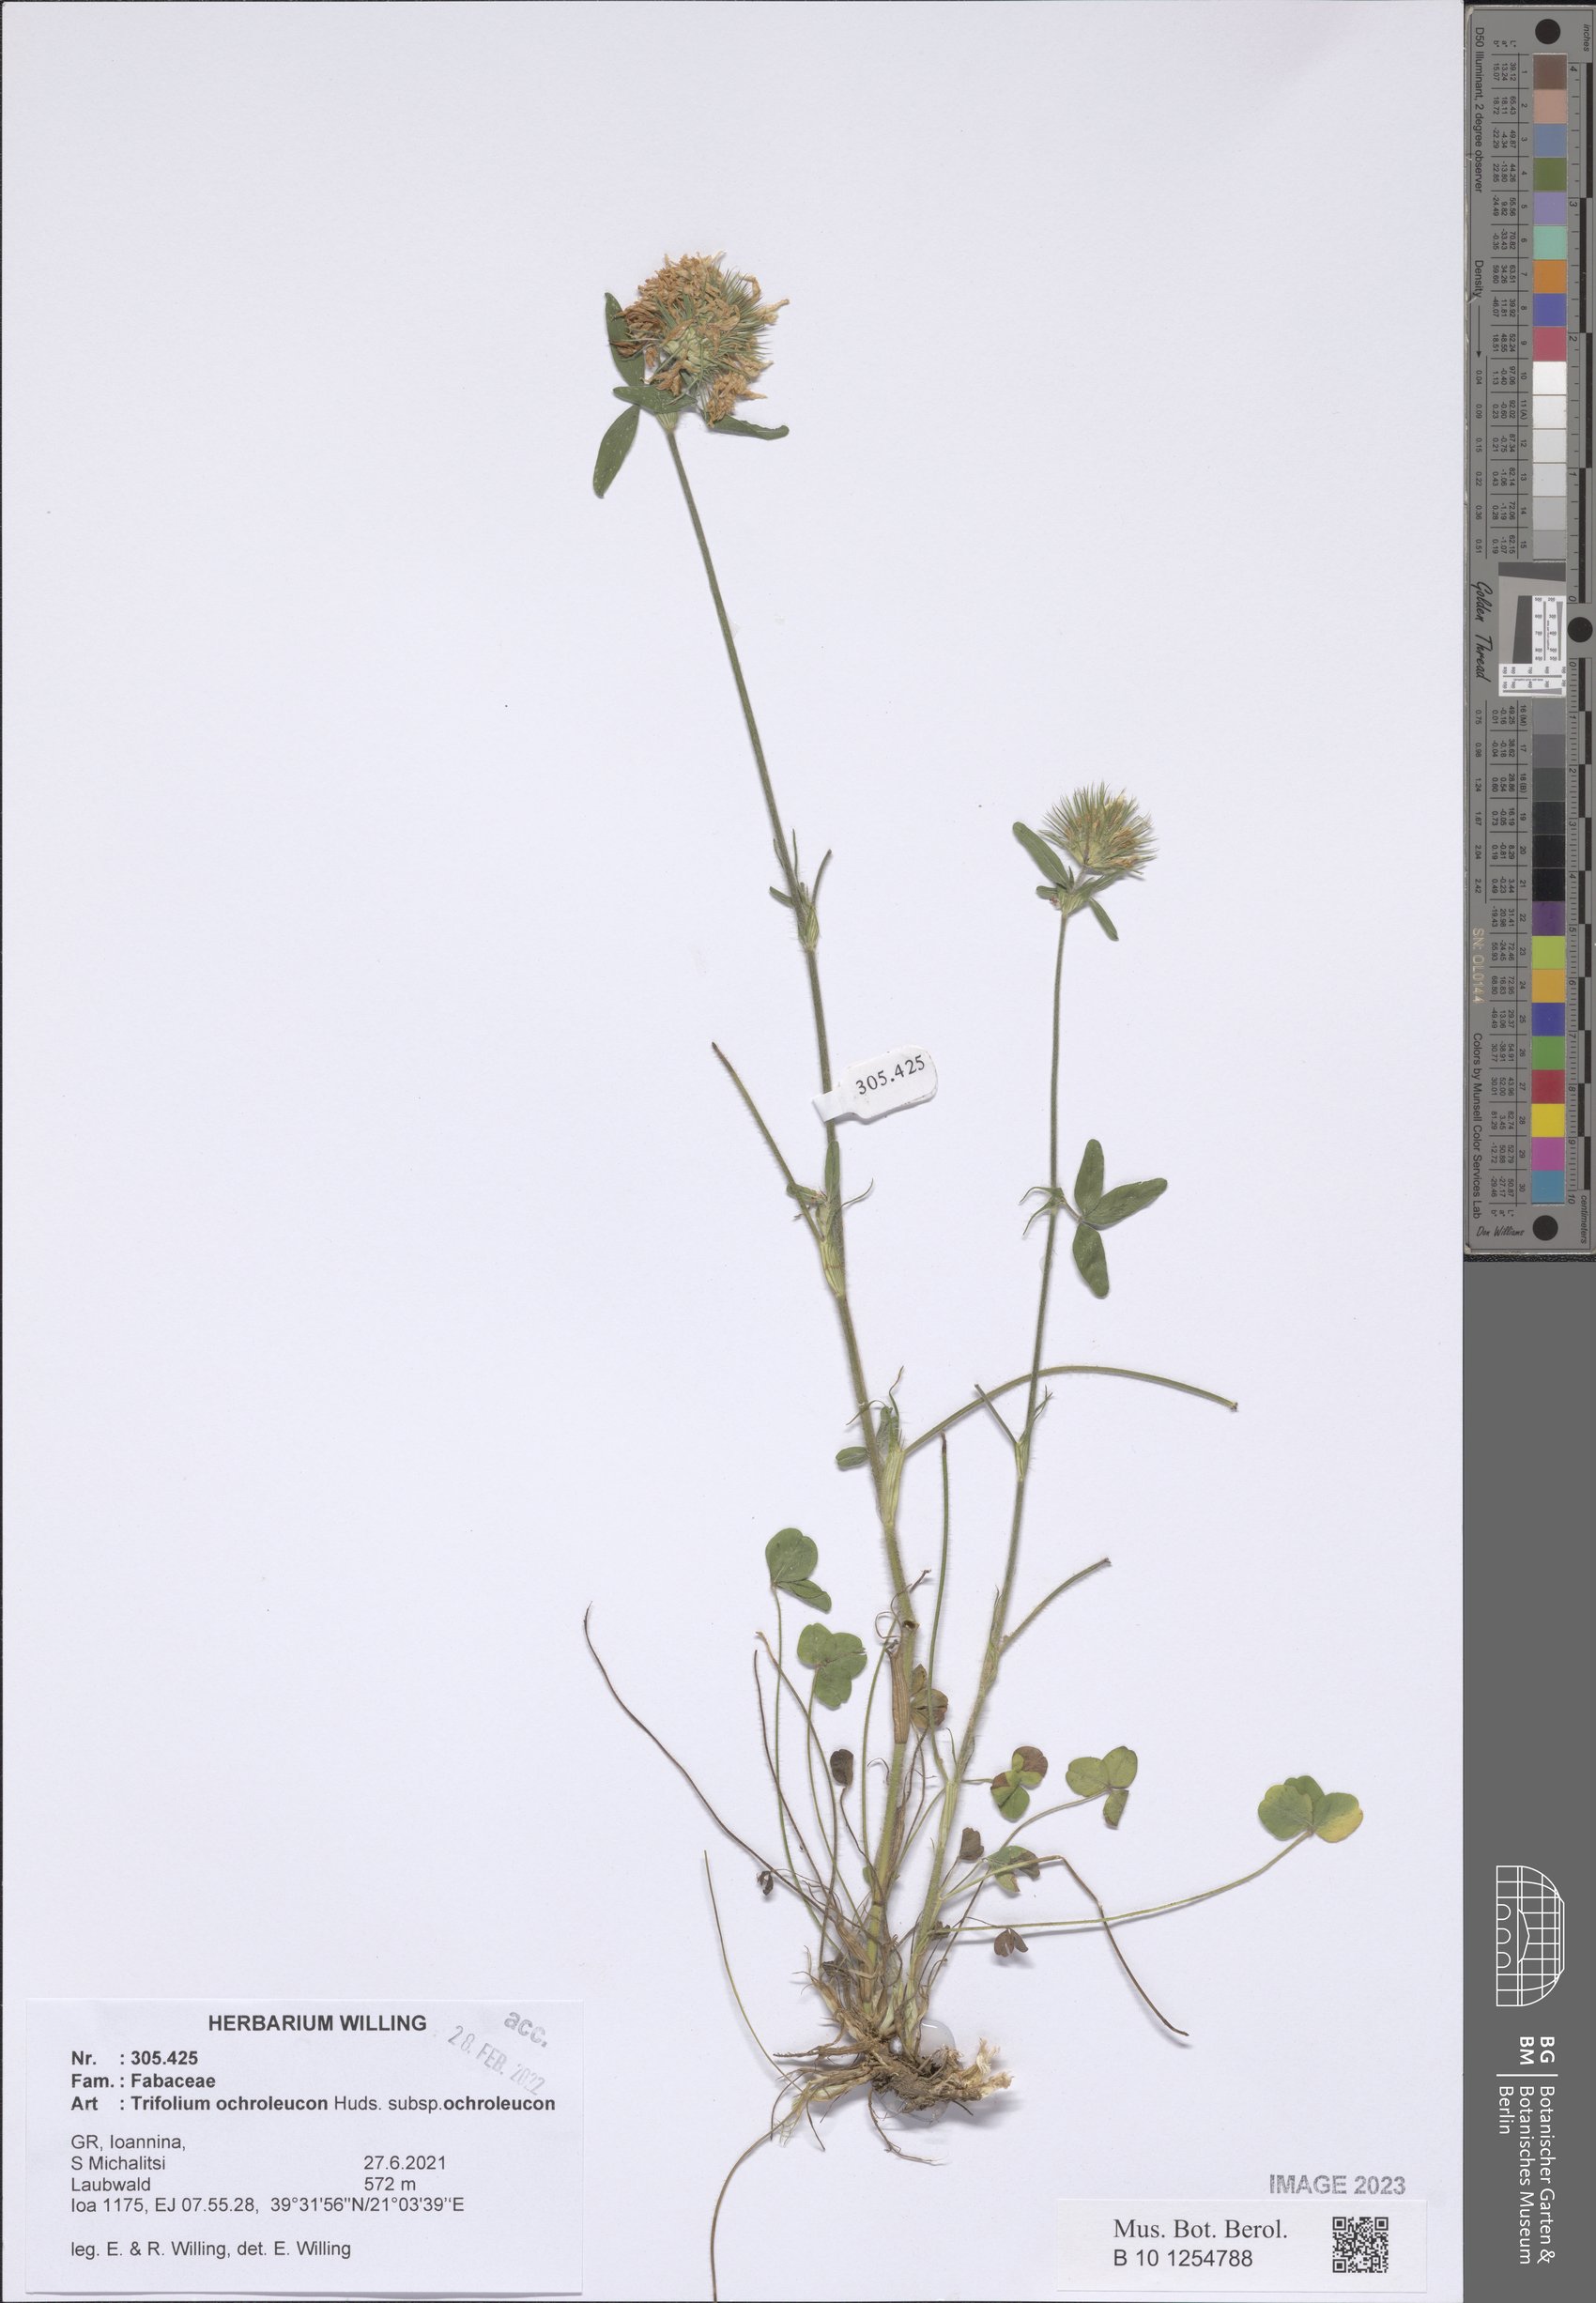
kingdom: Plantae
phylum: Tracheophyta
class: Magnoliopsida
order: Fabales
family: Fabaceae
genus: Trifolium
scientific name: Trifolium ochroleucon
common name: Sulphur clover
